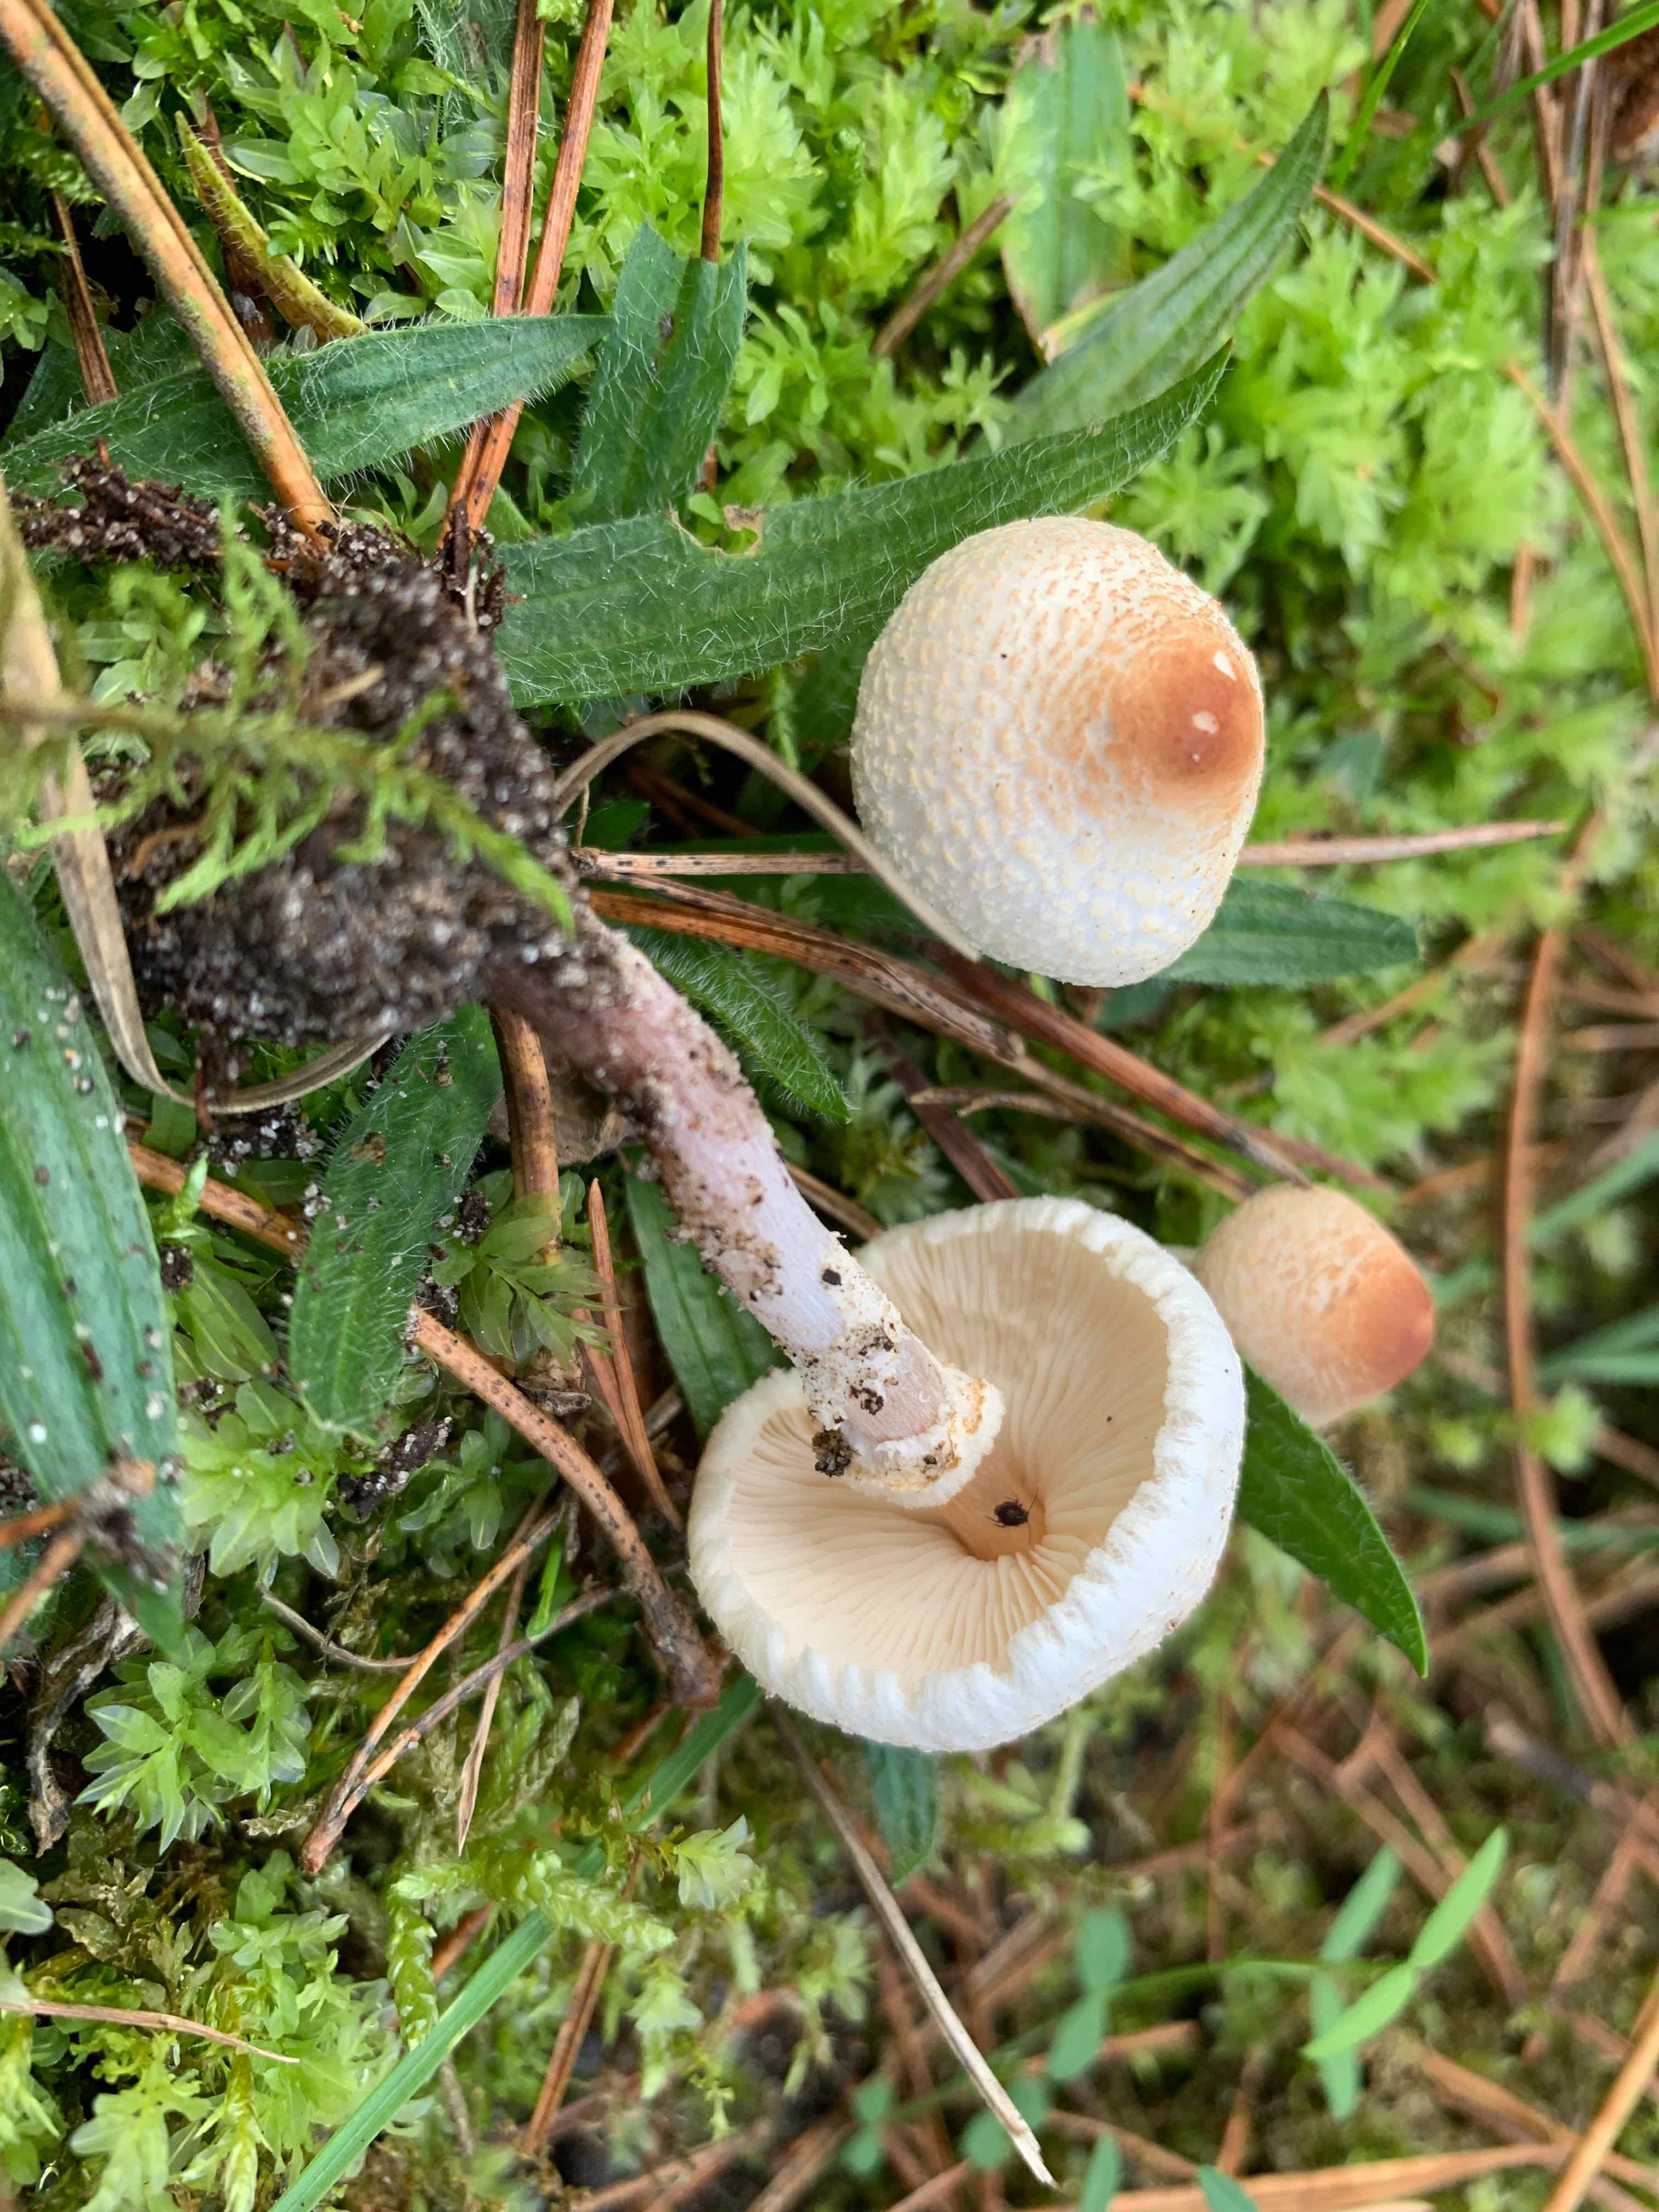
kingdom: Fungi
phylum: Basidiomycota
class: Agaricomycetes
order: Agaricales
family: Agaricaceae
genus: Lepiota
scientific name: Lepiota cristata
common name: stinkende parasolhat
